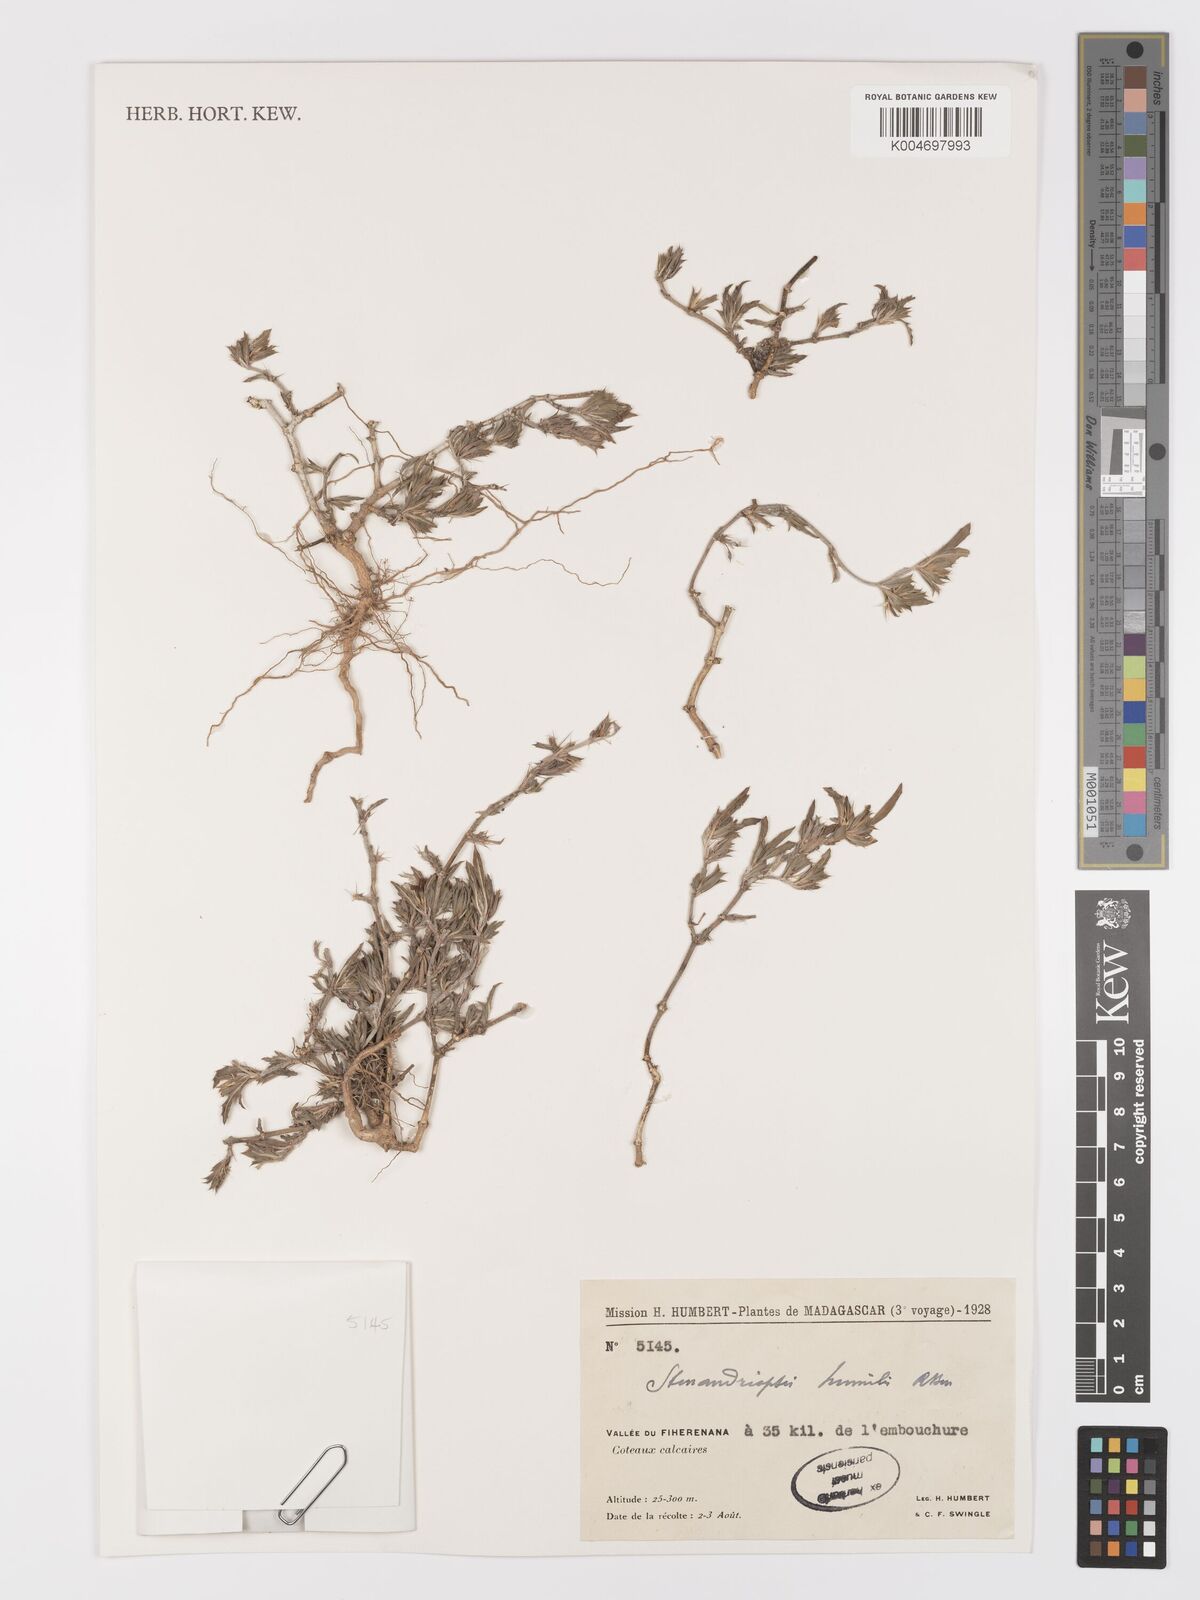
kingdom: Plantae
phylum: Tracheophyta
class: Magnoliopsida
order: Lamiales
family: Acanthaceae
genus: Stenandriopsis
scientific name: Stenandriopsis keraudrenae
